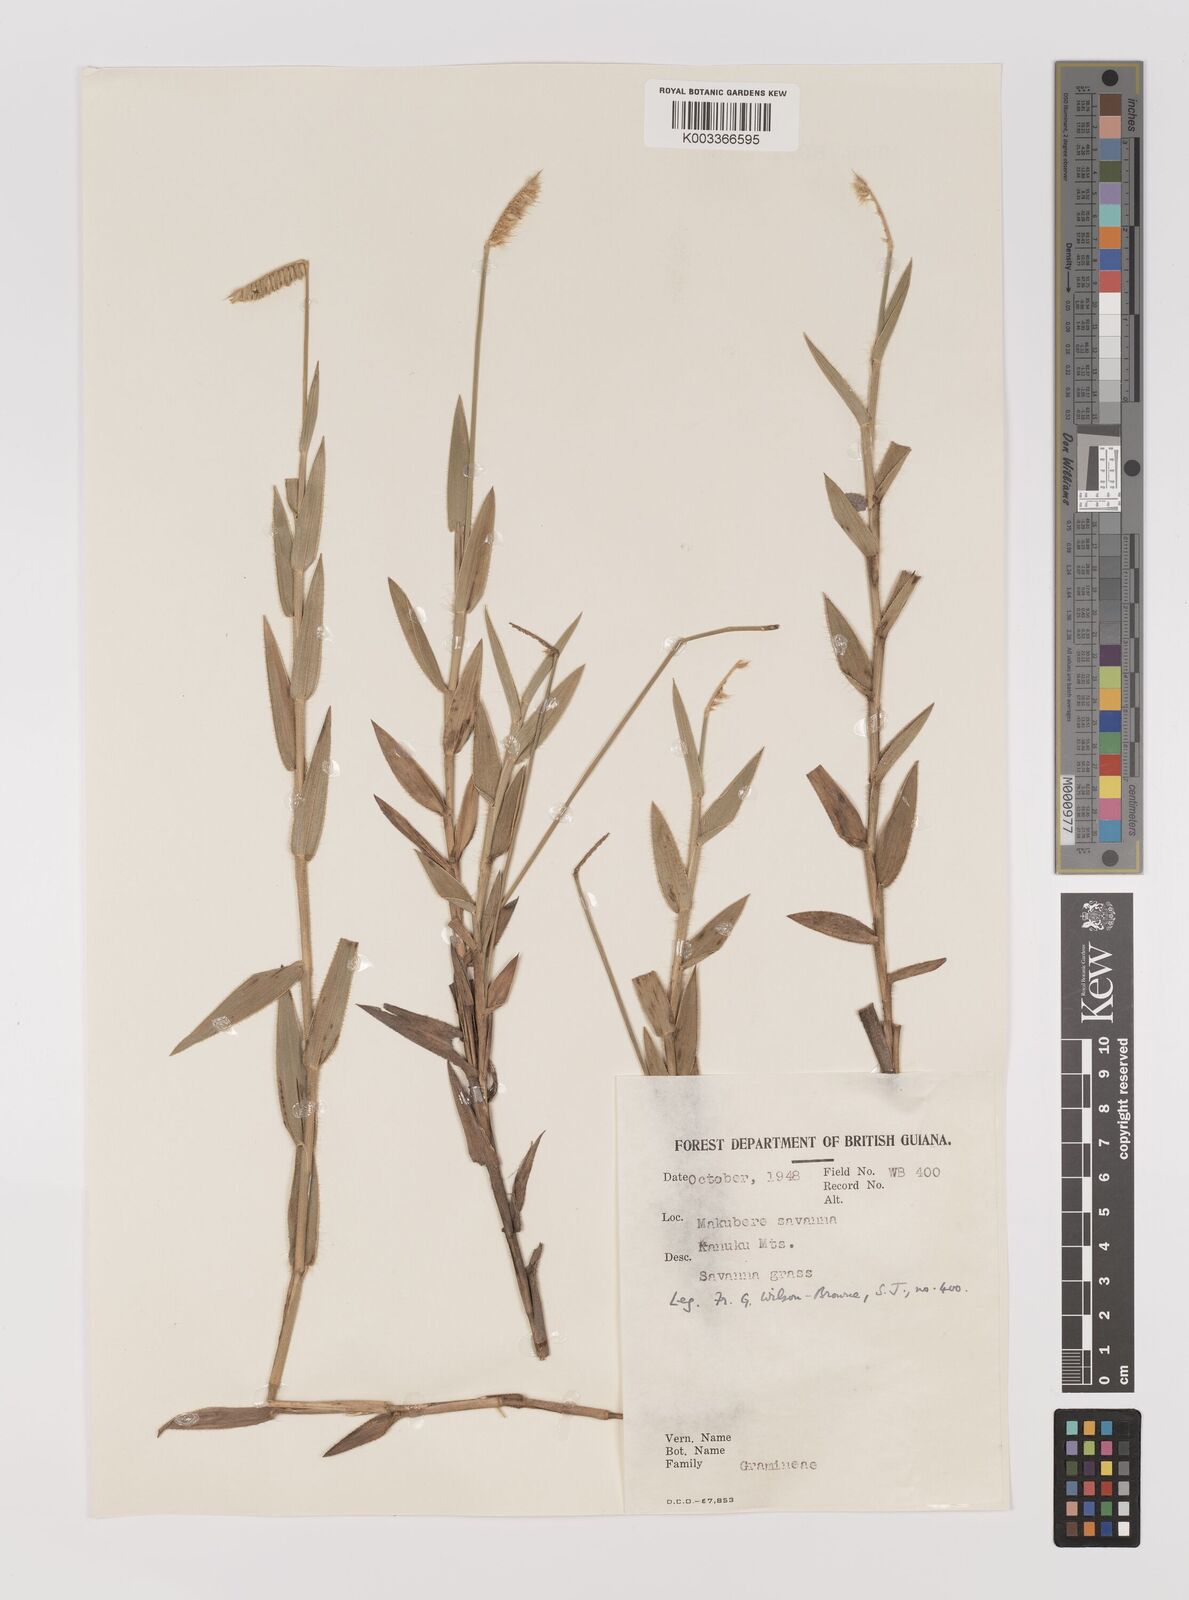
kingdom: Plantae
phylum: Tracheophyta
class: Liliopsida
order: Poales
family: Poaceae
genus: Echinolaena
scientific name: Echinolaena inflexa
